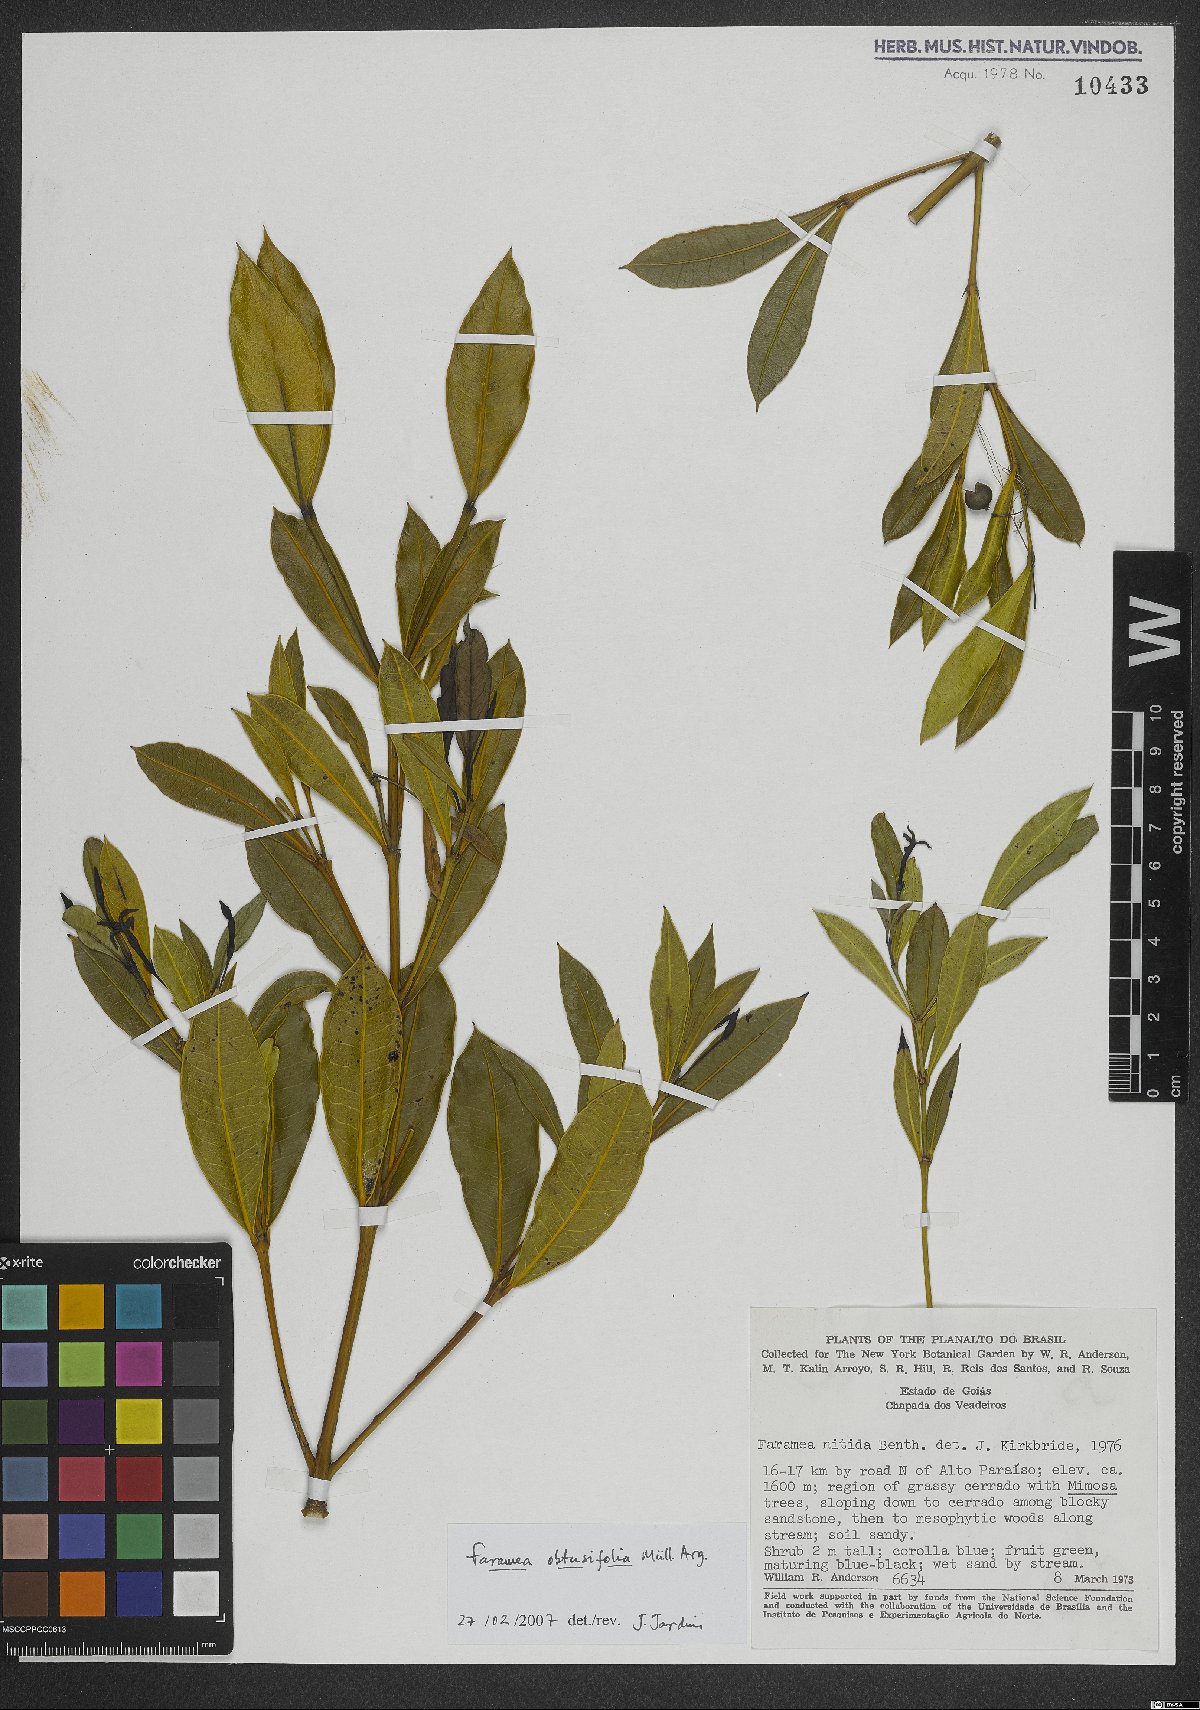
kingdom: Plantae
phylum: Tracheophyta
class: Magnoliopsida
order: Gentianales
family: Rubiaceae
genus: Faramea
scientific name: Faramea obtusifolia
